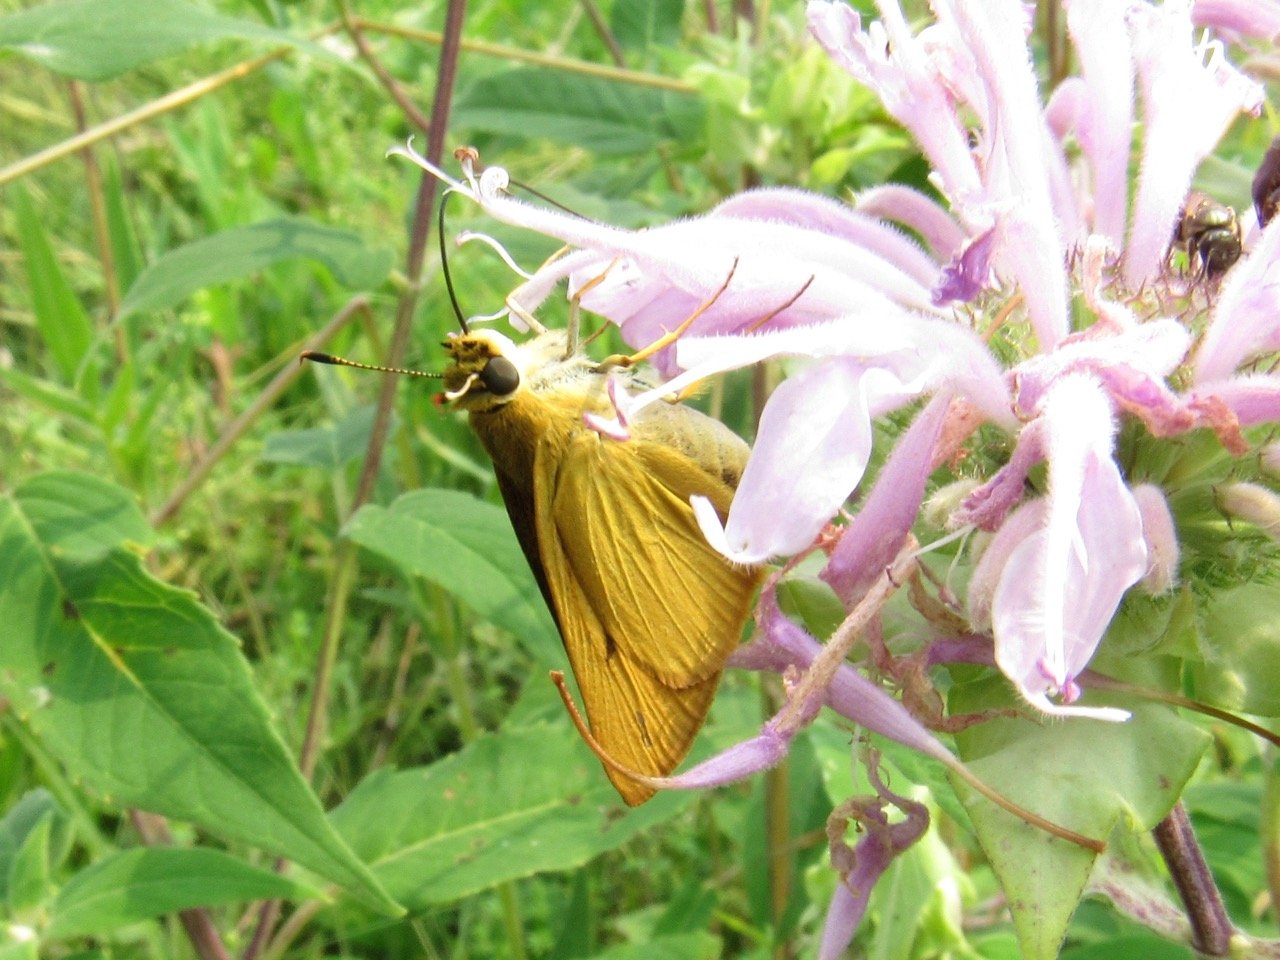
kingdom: Animalia
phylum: Arthropoda
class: Insecta
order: Lepidoptera
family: Hesperiidae
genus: Atrytone
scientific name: Atrytone delaware
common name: Delaware Skipper
